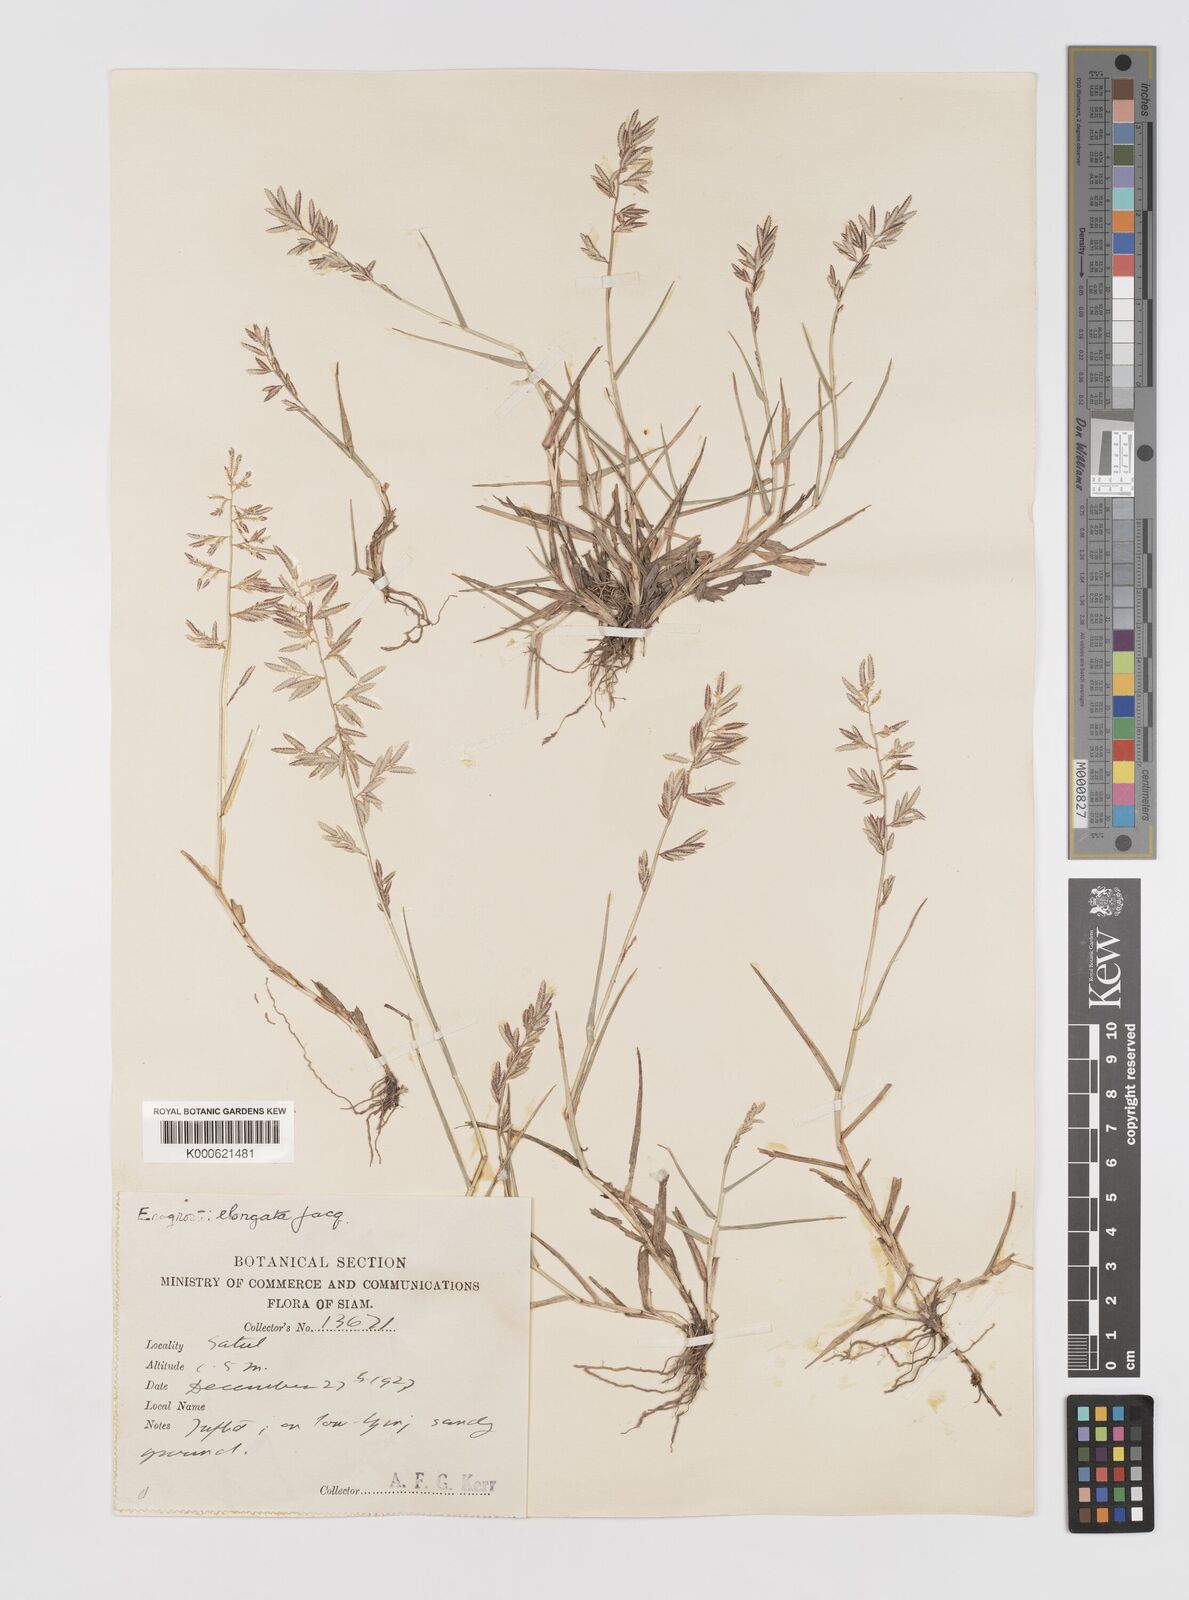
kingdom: Plantae
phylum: Tracheophyta
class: Liliopsida
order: Poales
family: Poaceae
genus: Eragrostis
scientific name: Eragrostis subsecunda
